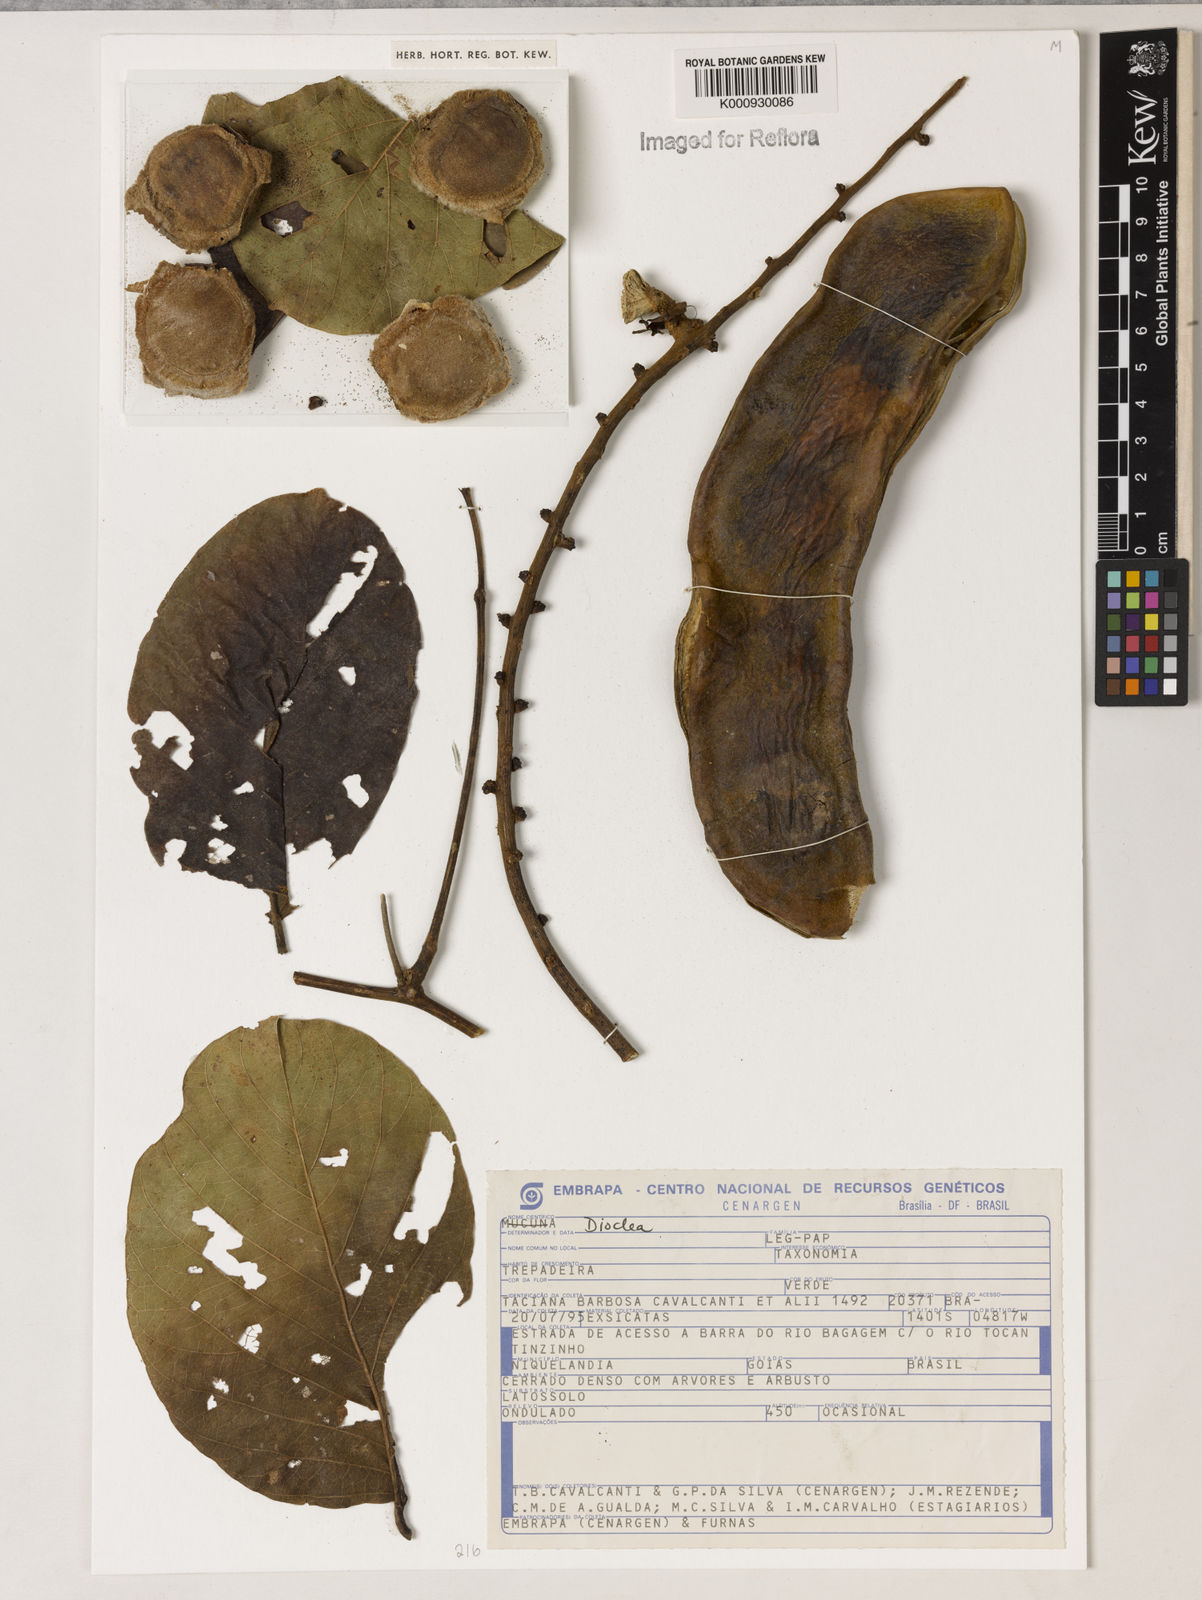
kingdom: Plantae
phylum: Tracheophyta
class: Magnoliopsida
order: Fabales
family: Fabaceae
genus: Dioclea
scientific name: Dioclea
